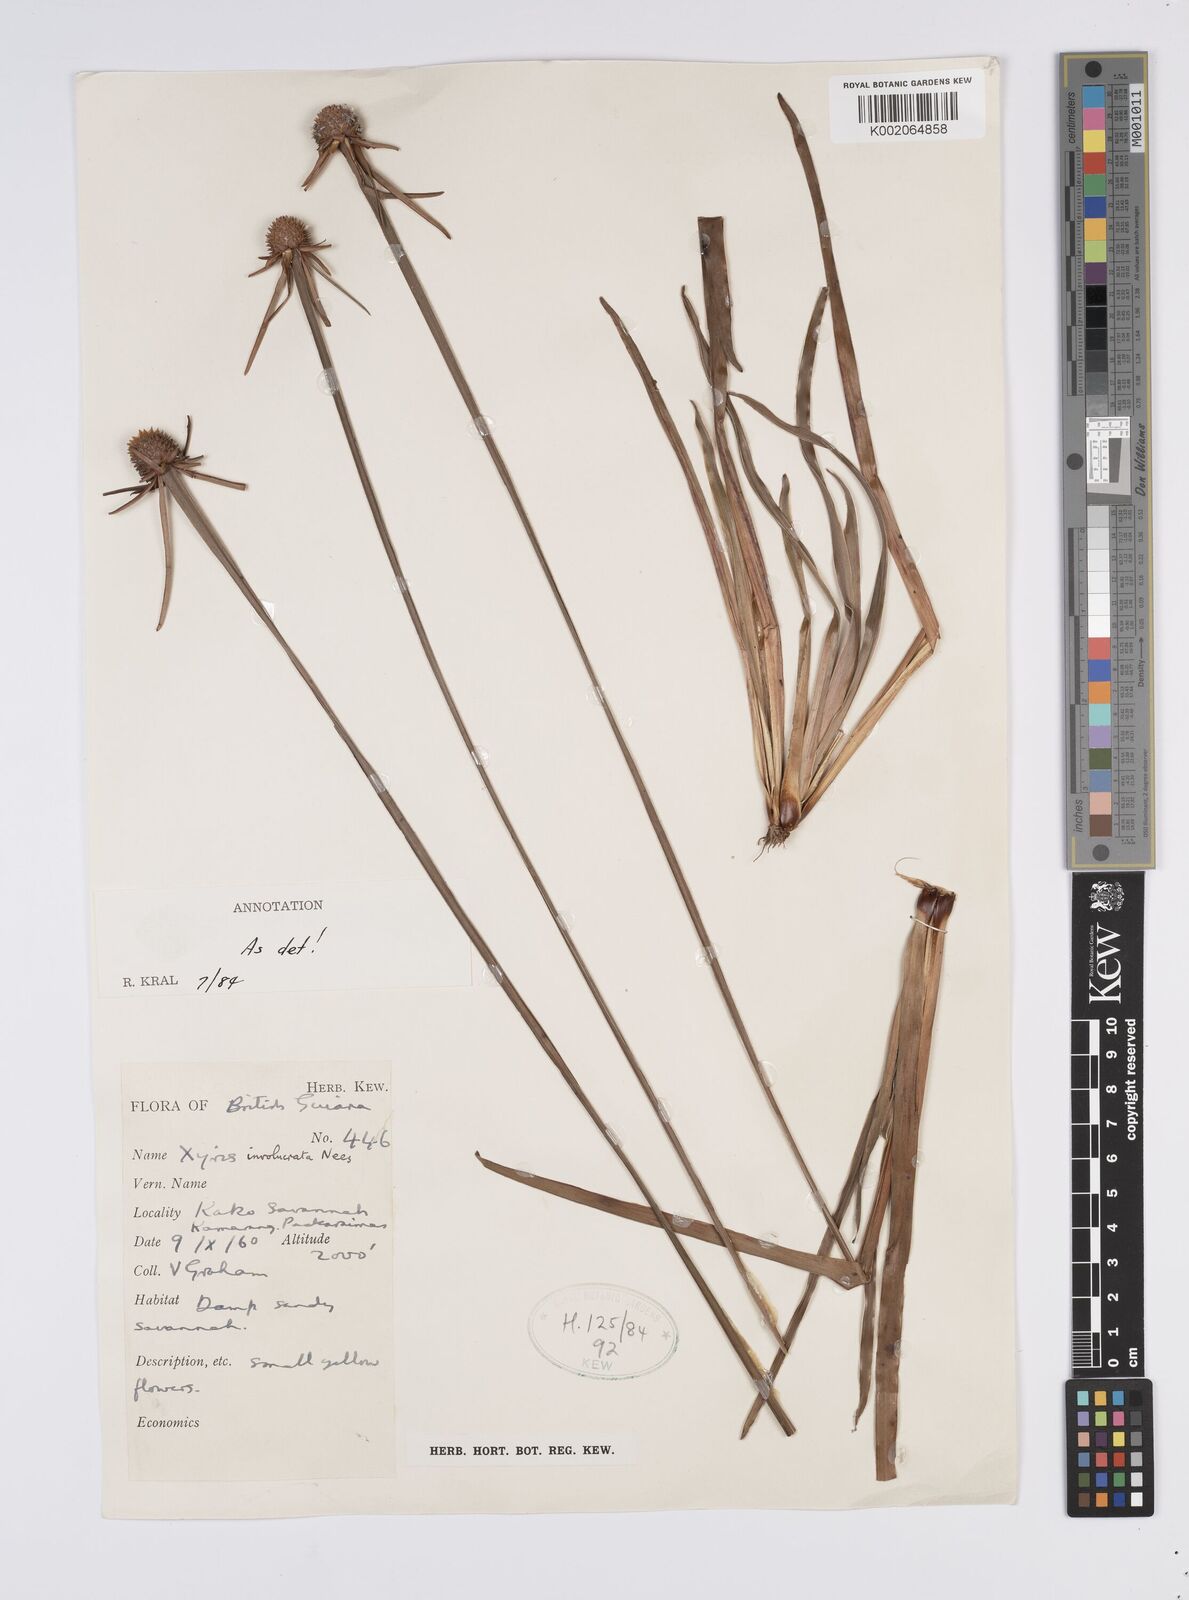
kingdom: Plantae
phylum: Tracheophyta
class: Liliopsida
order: Poales
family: Xyridaceae
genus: Xyris
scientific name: Xyris involucrata
